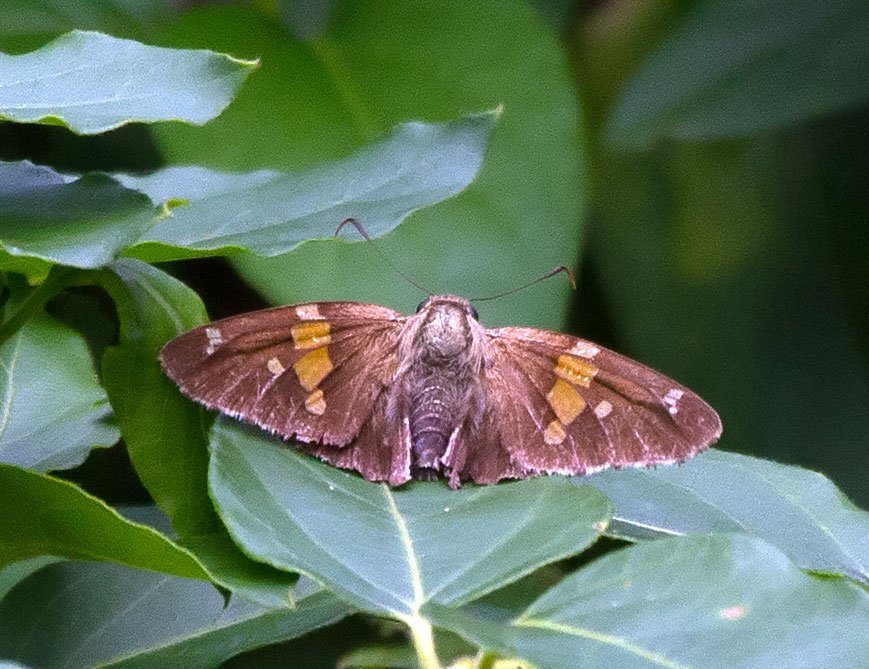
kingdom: Animalia
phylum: Arthropoda
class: Insecta
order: Lepidoptera
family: Hesperiidae
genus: Epargyreus
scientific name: Epargyreus clarus
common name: Silver-spotted Skipper
